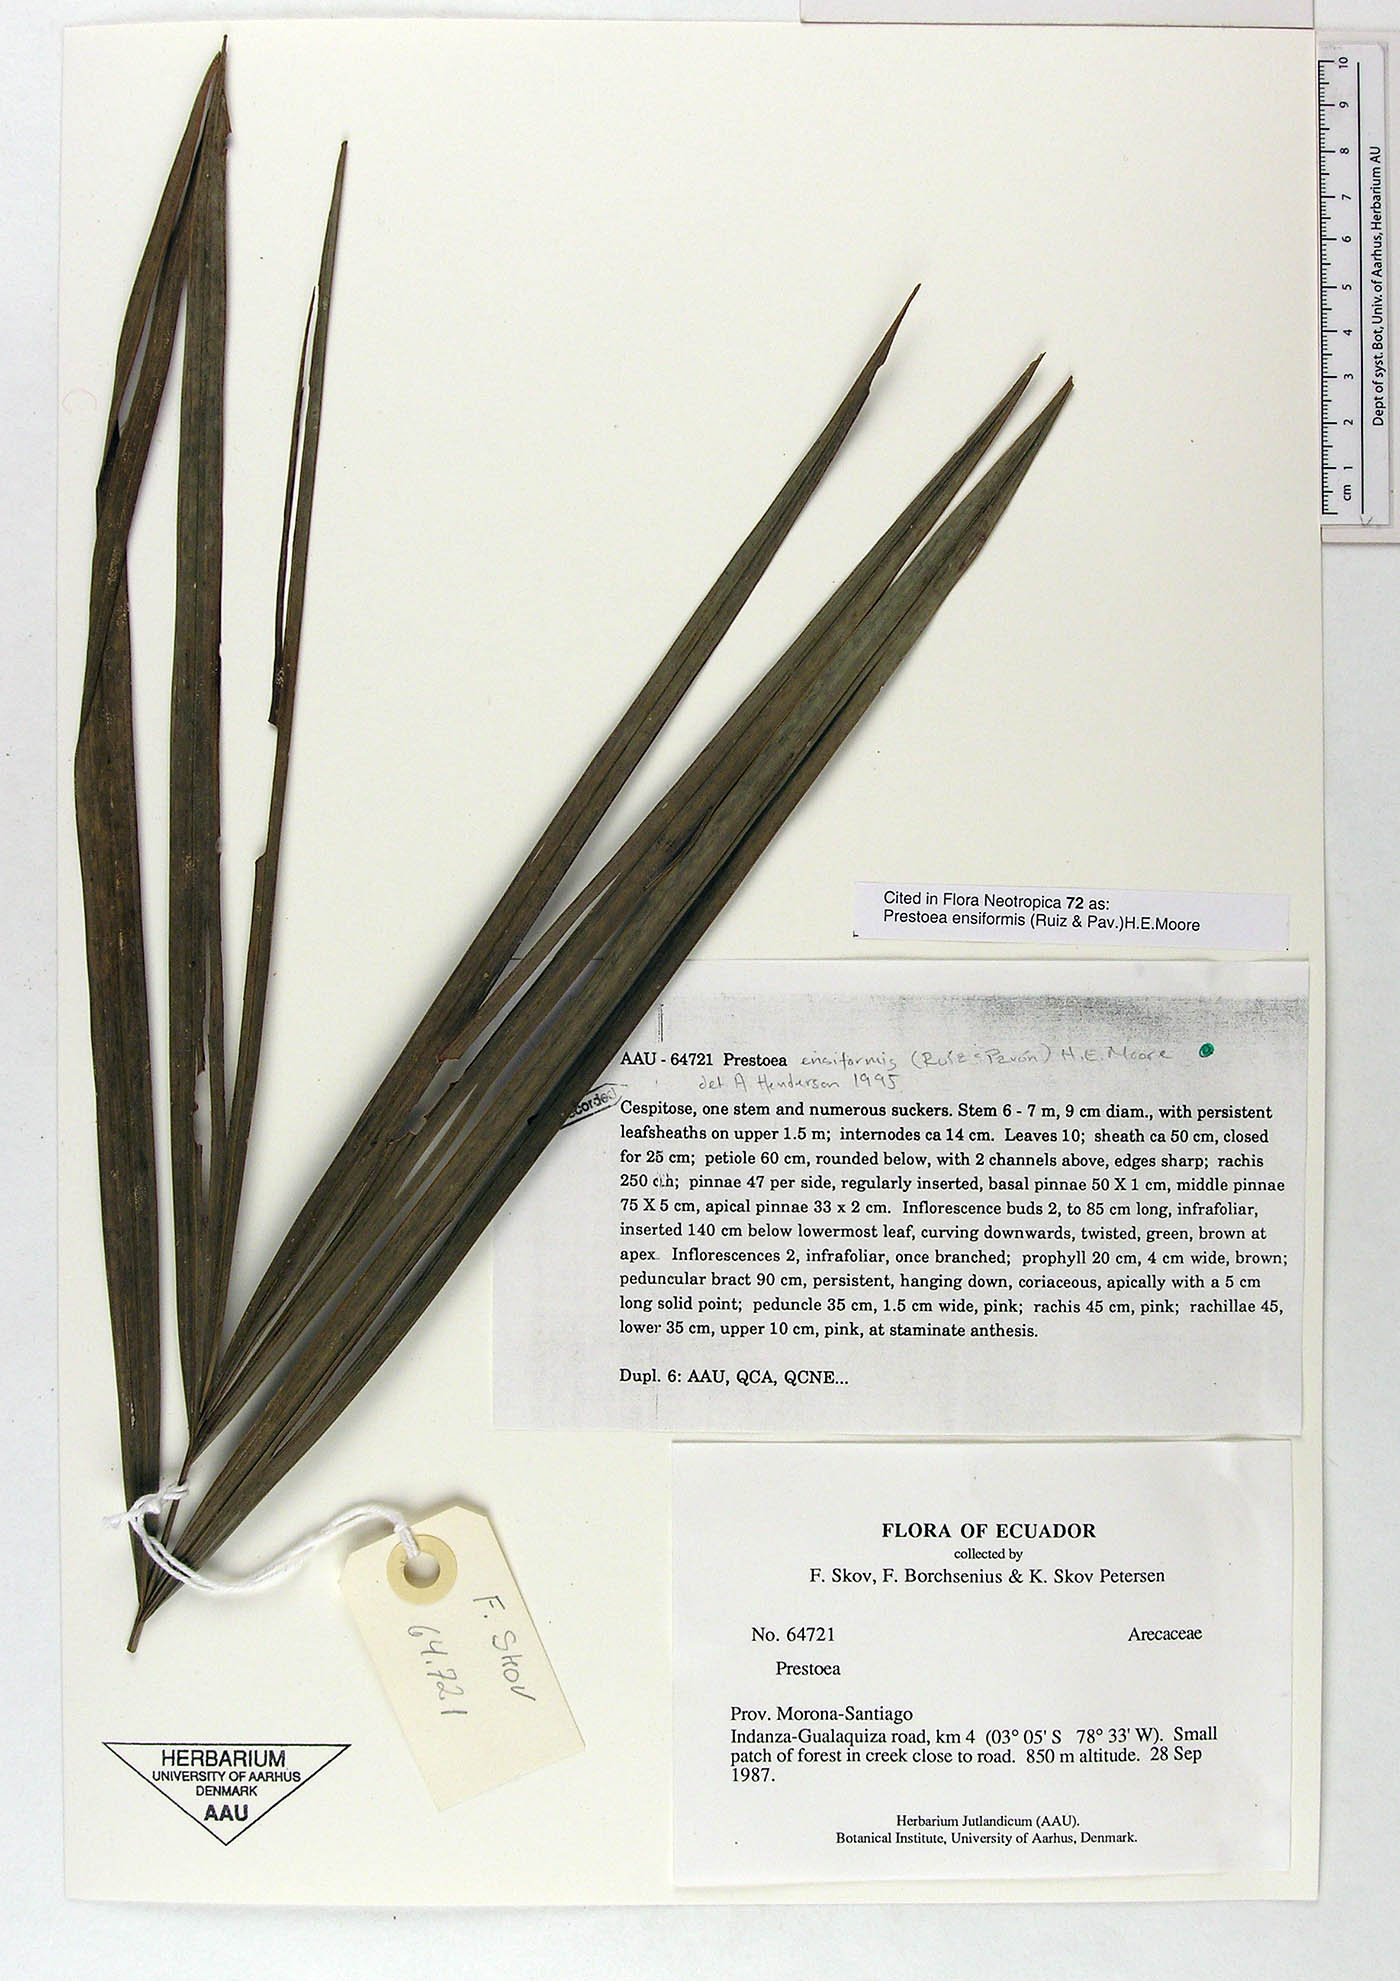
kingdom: Plantae
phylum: Tracheophyta
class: Liliopsida
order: Arecales
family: Arecaceae
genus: Prestoea
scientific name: Prestoea ensiformis
